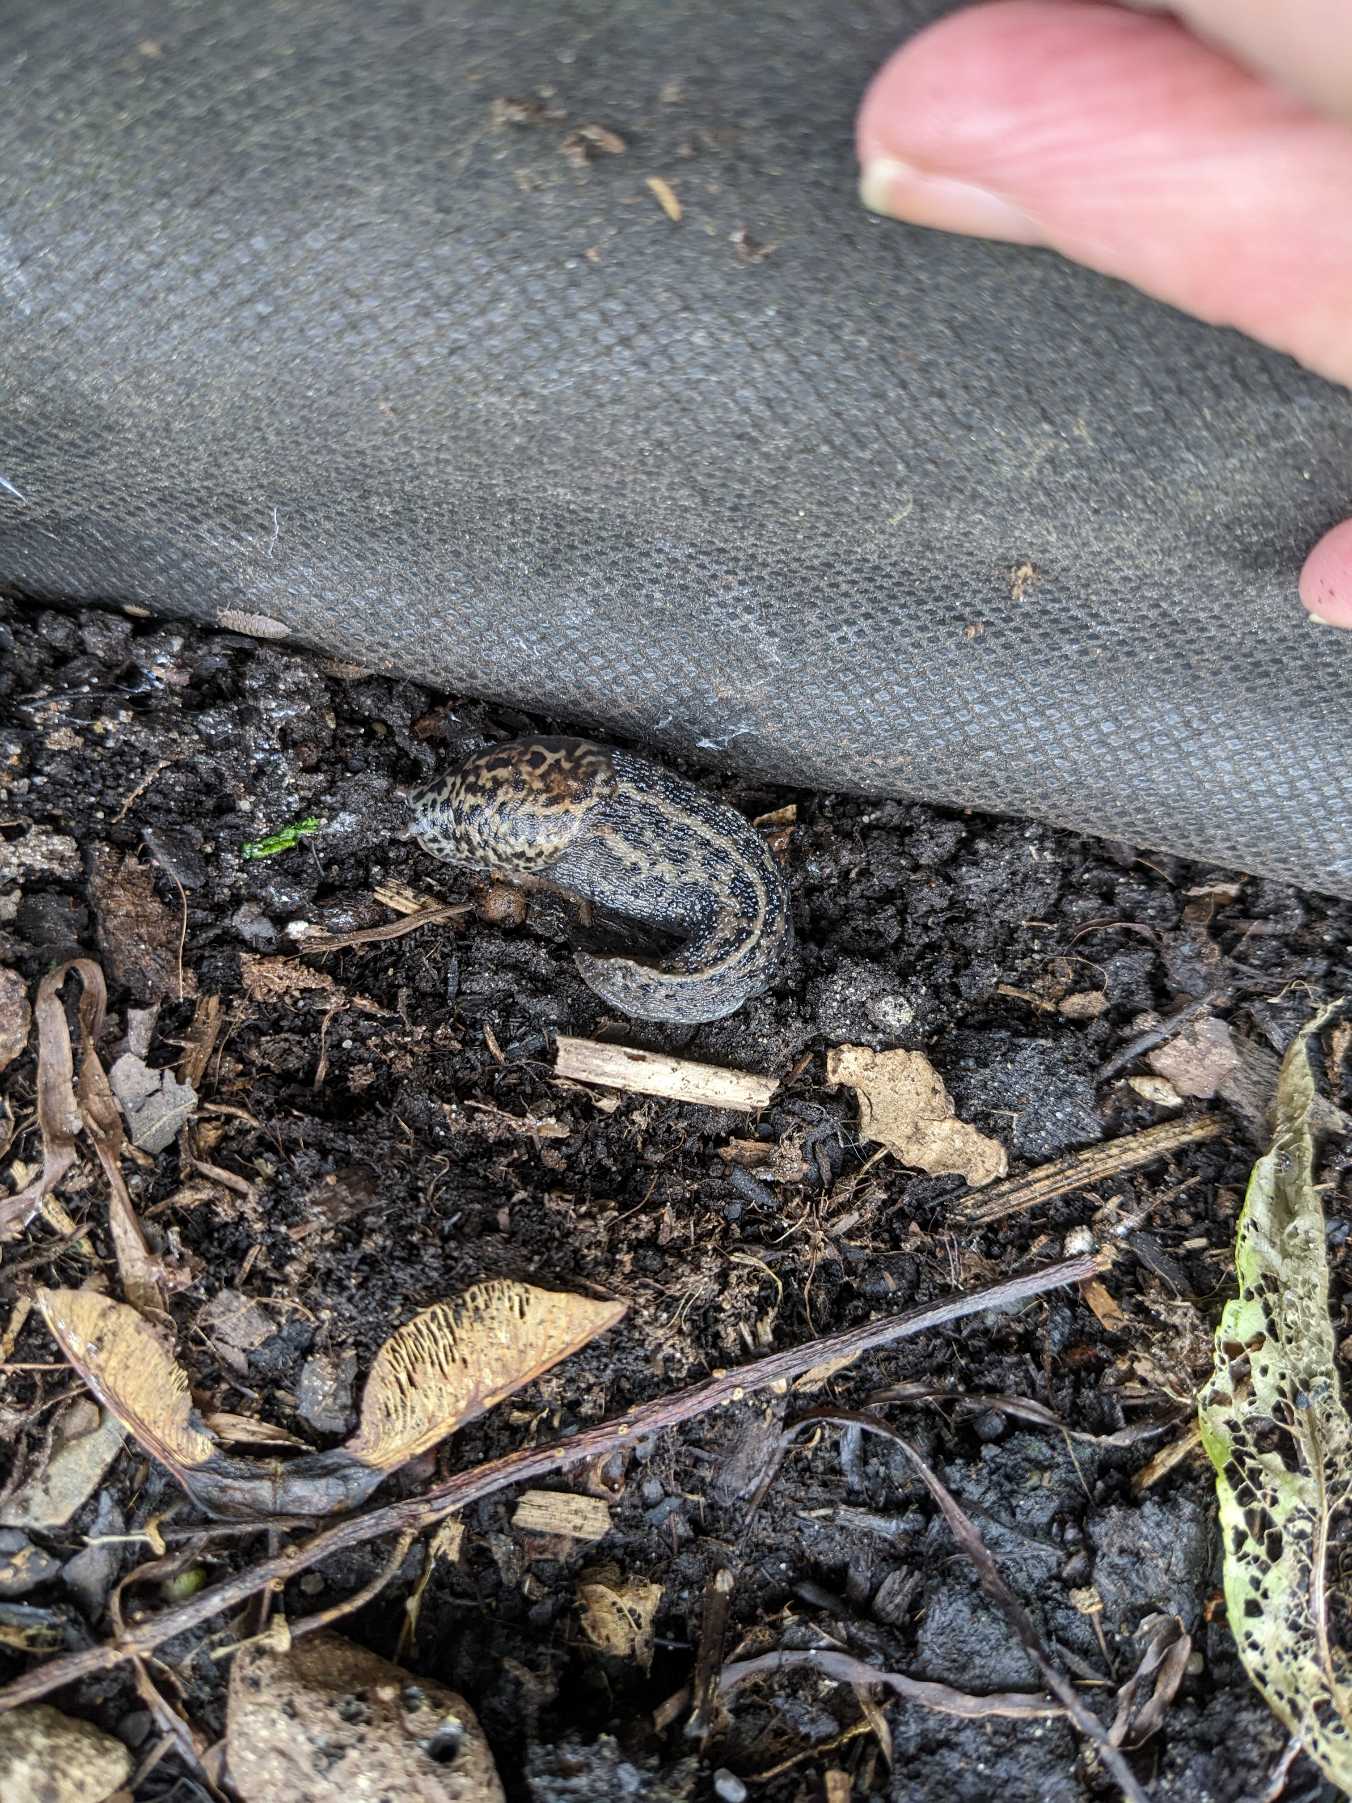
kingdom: Animalia
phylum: Mollusca
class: Gastropoda
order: Stylommatophora
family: Limacidae
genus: Limax
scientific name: Limax maximus
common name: Pantersnegl
